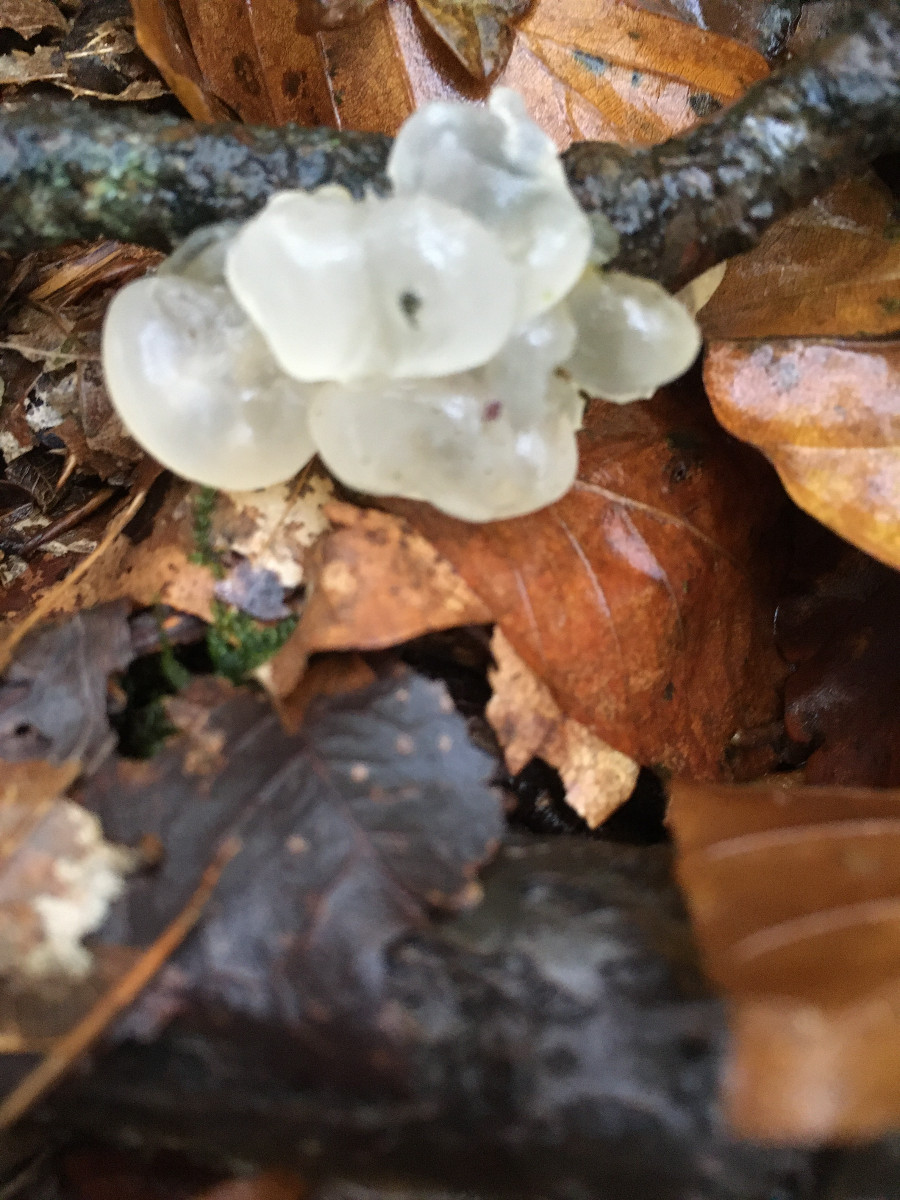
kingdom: Fungi
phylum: Basidiomycota
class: Agaricomycetes
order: Auriculariales
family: Hyaloriaceae
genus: Myxarium
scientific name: Myxarium nucleatum
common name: klar bævretop
